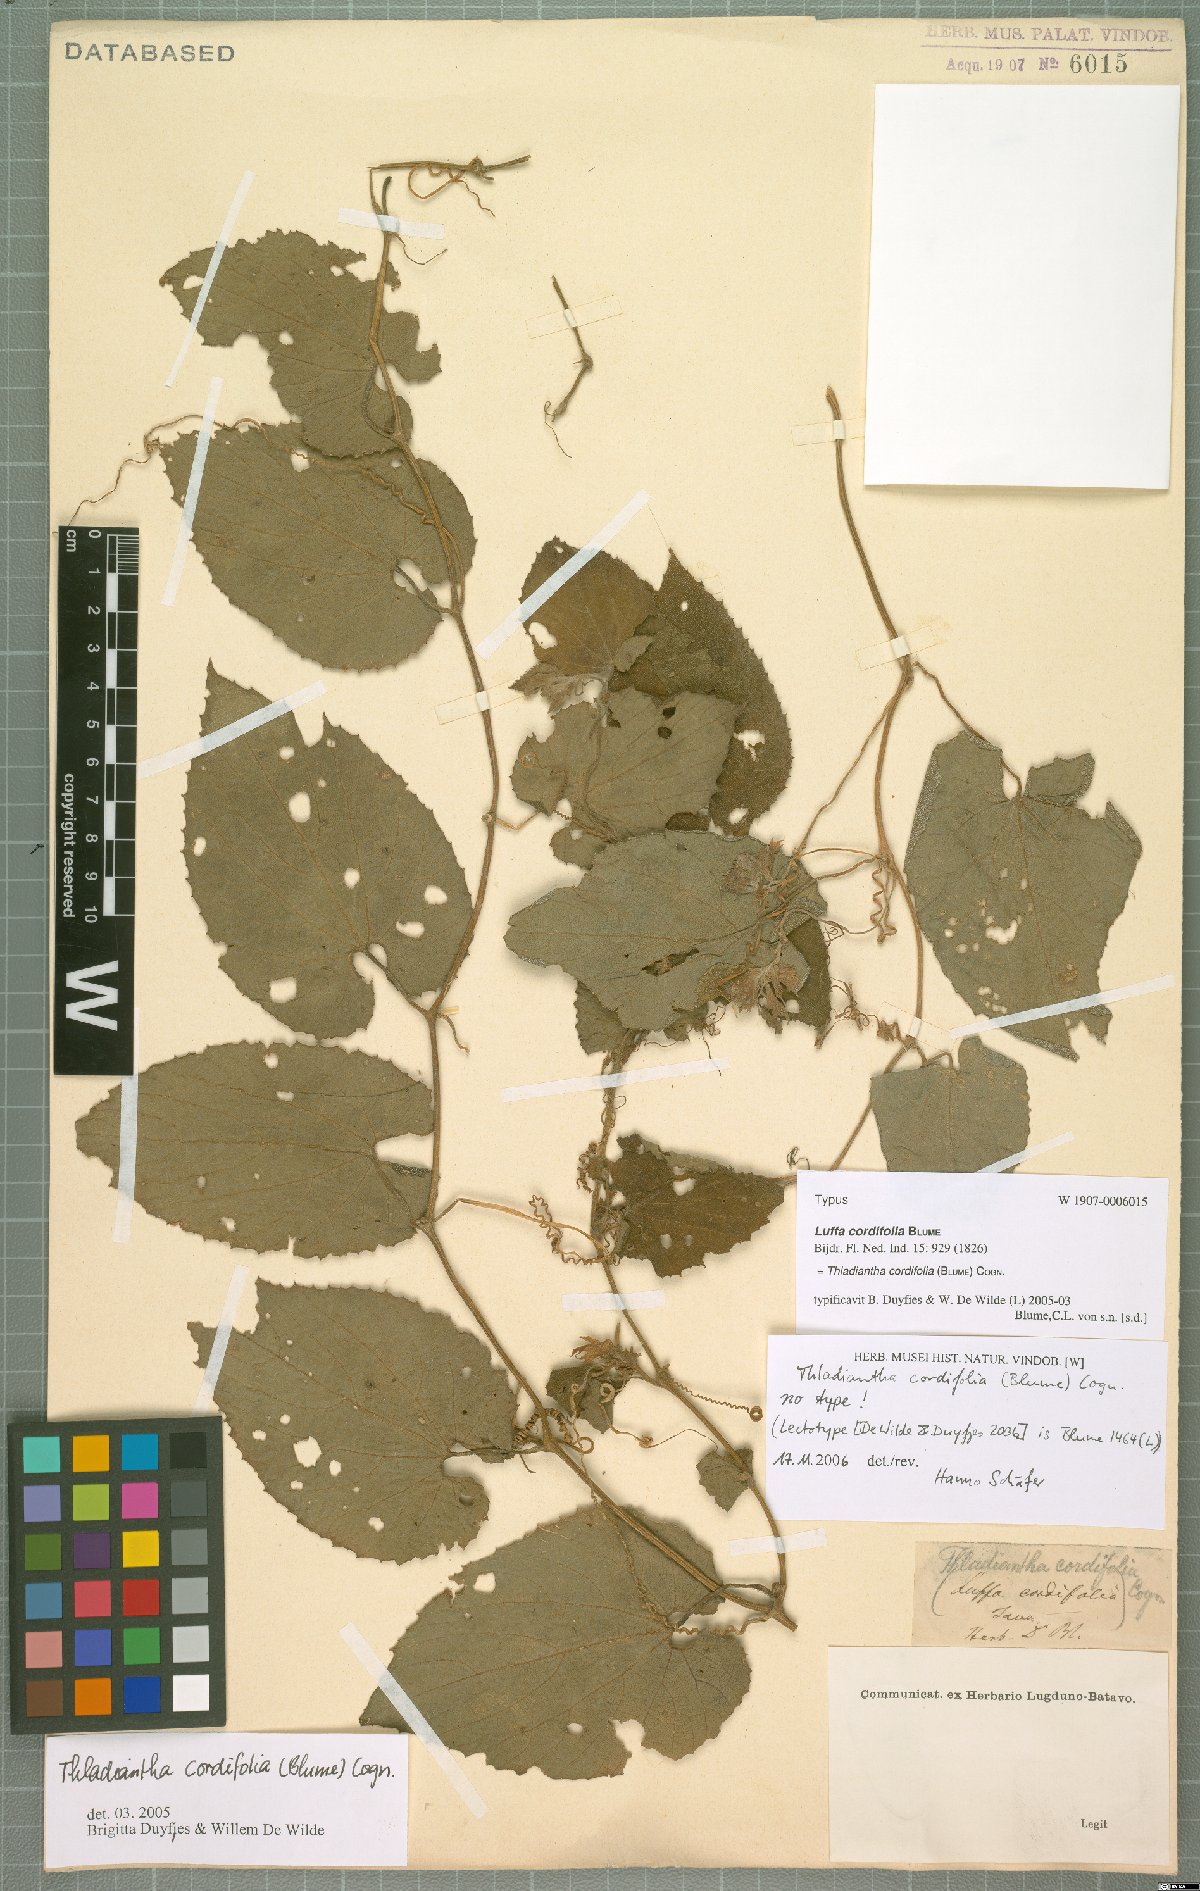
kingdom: Plantae
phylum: Tracheophyta
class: Magnoliopsida
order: Cucurbitales
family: Cucurbitaceae
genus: Thladiantha
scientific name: Thladiantha cordifolia
